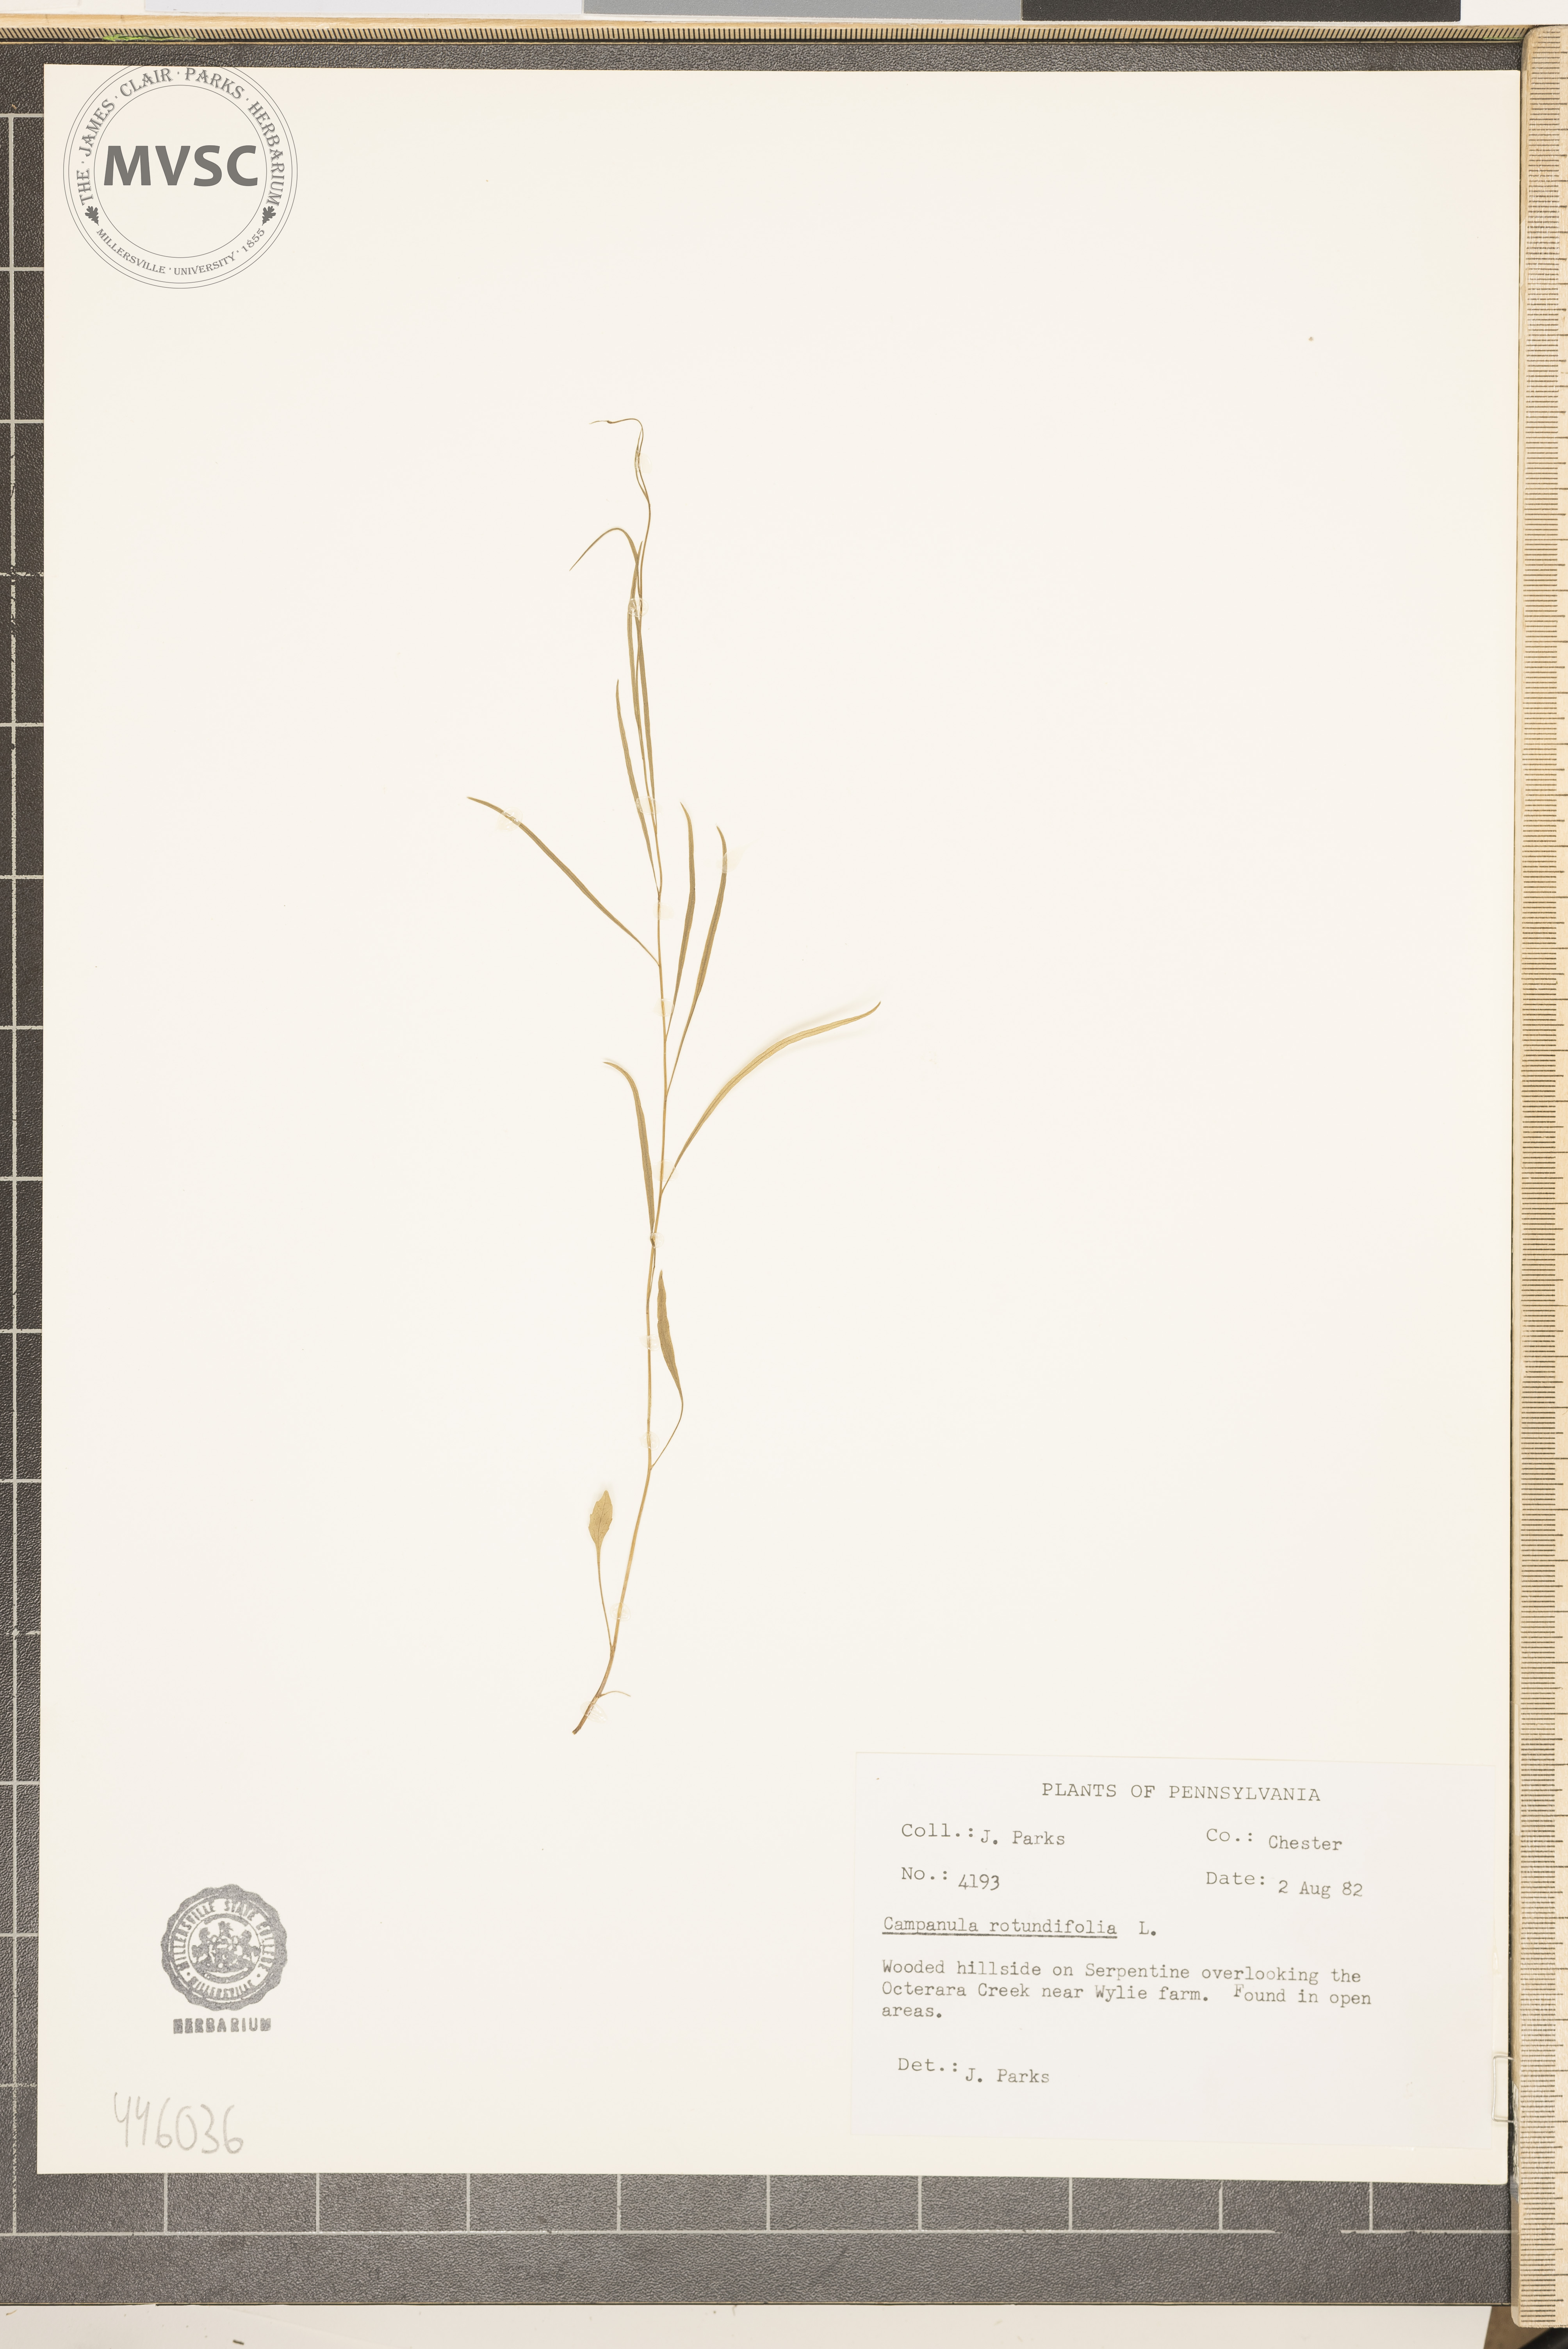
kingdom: Plantae
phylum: Tracheophyta
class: Magnoliopsida
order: Asterales
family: Campanulaceae
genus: Campanula
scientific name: Campanula rotundifolia
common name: Harebell
